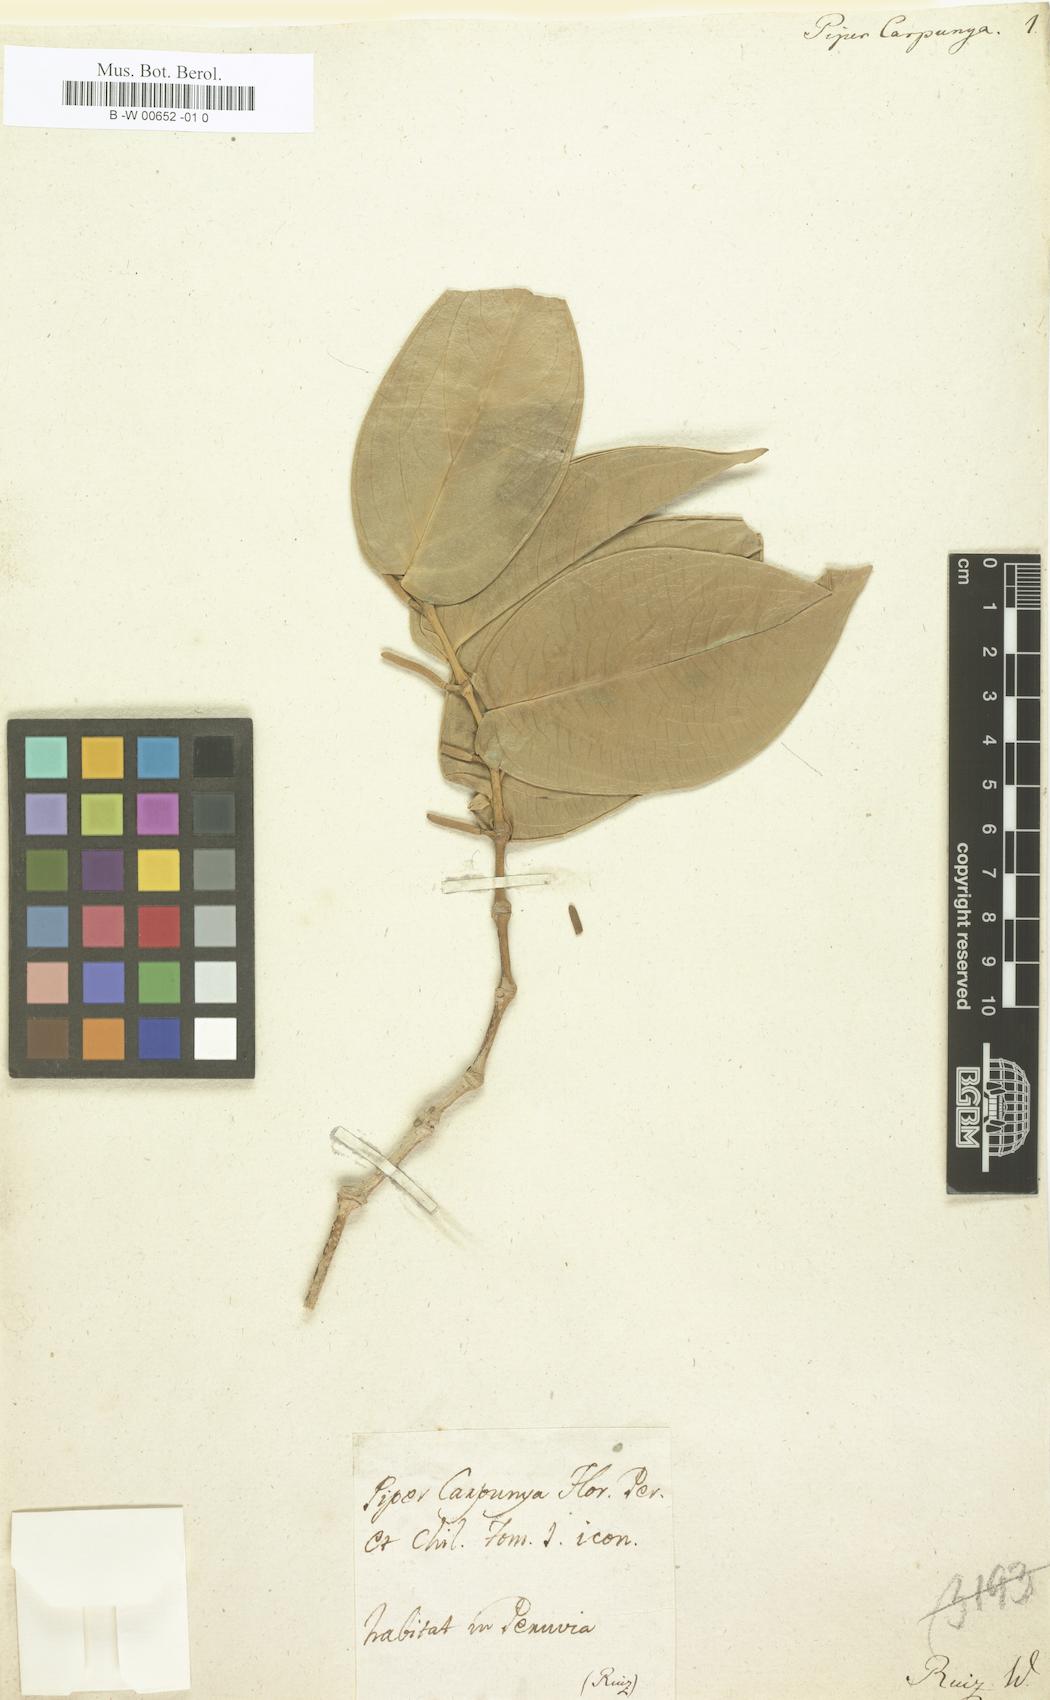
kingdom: Plantae
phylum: Tracheophyta
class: Magnoliopsida
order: Piperales
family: Piperaceae
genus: Piper
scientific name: Piper carpunya
